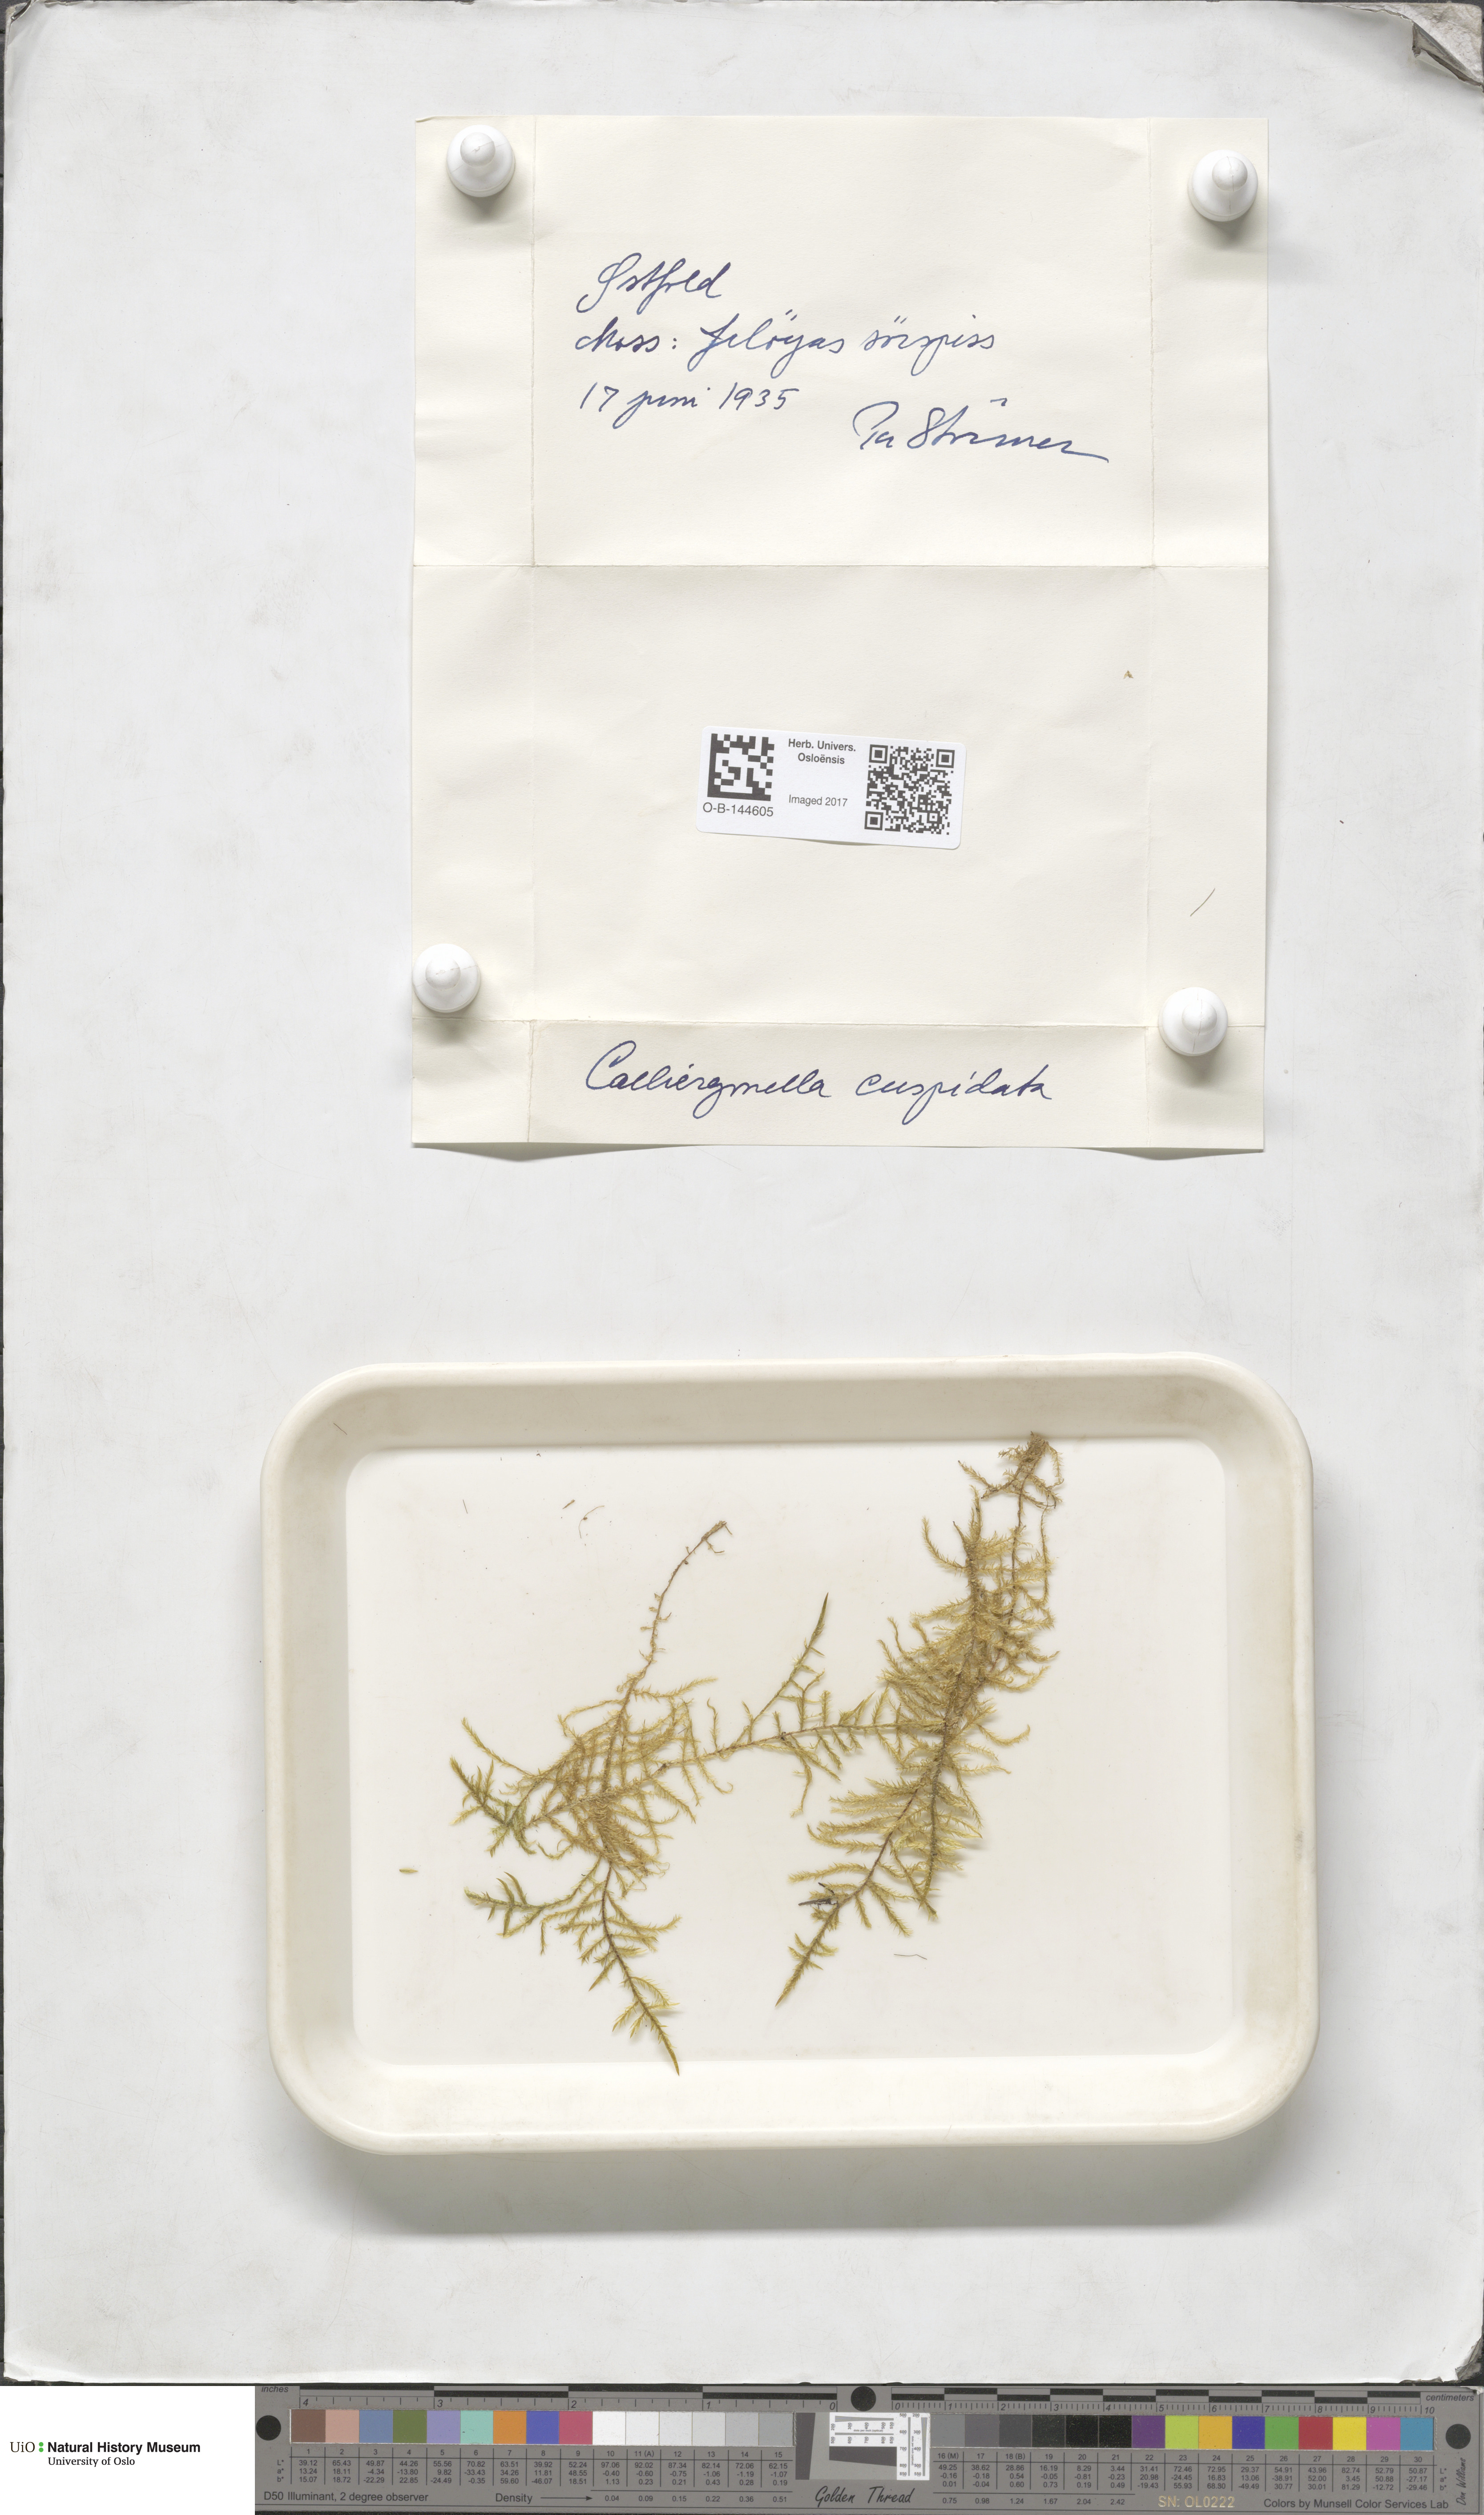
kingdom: Plantae
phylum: Bryophyta
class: Bryopsida
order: Hypnales
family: Pylaisiaceae
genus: Calliergonella
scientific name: Calliergonella cuspidata
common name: Common large wetland moss
